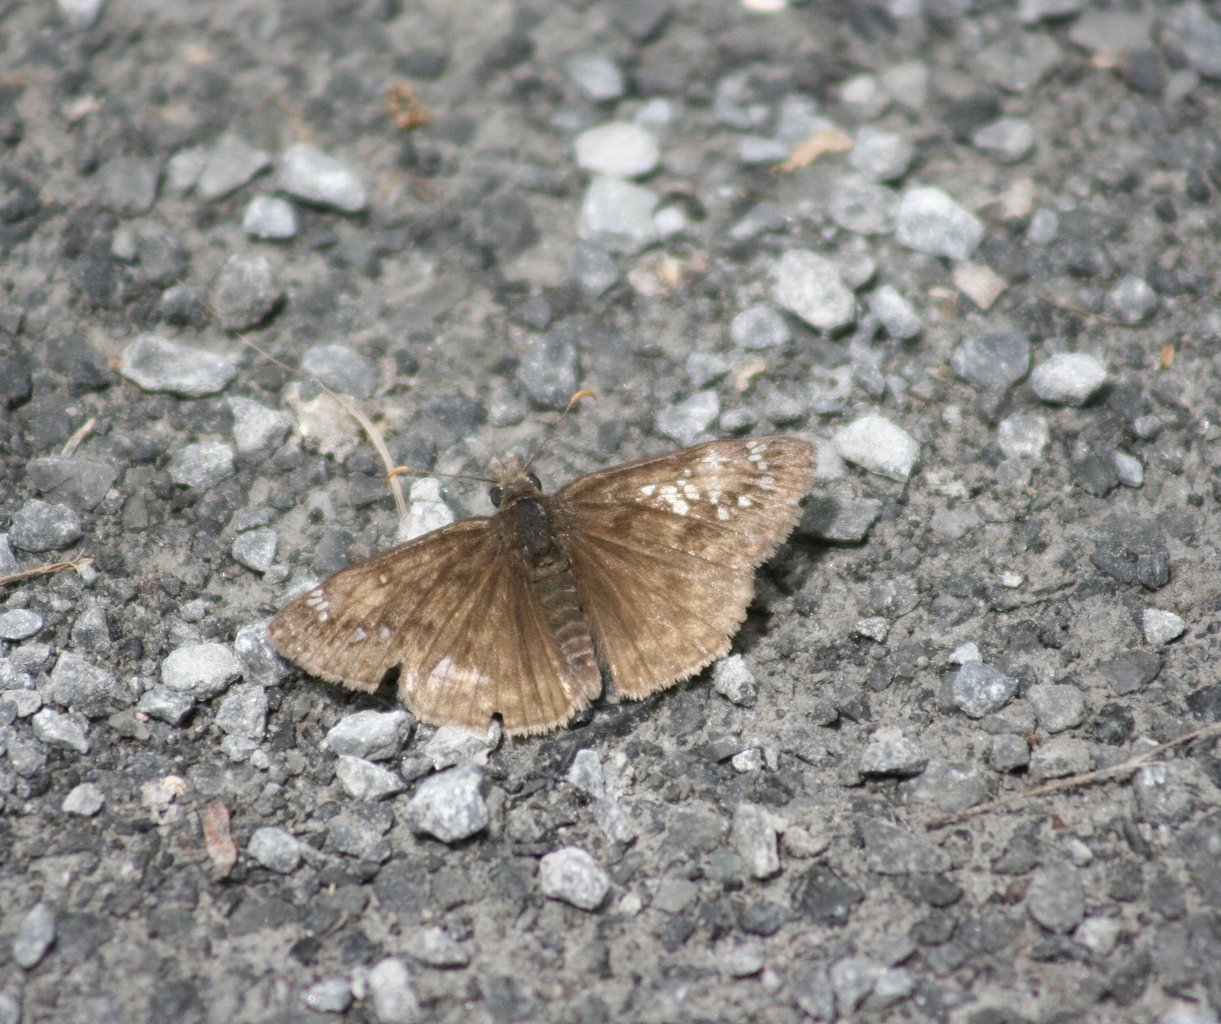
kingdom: Animalia
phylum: Arthropoda
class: Insecta
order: Lepidoptera
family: Hesperiidae
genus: Gesta
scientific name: Gesta
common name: Juvenal's Duskywing
